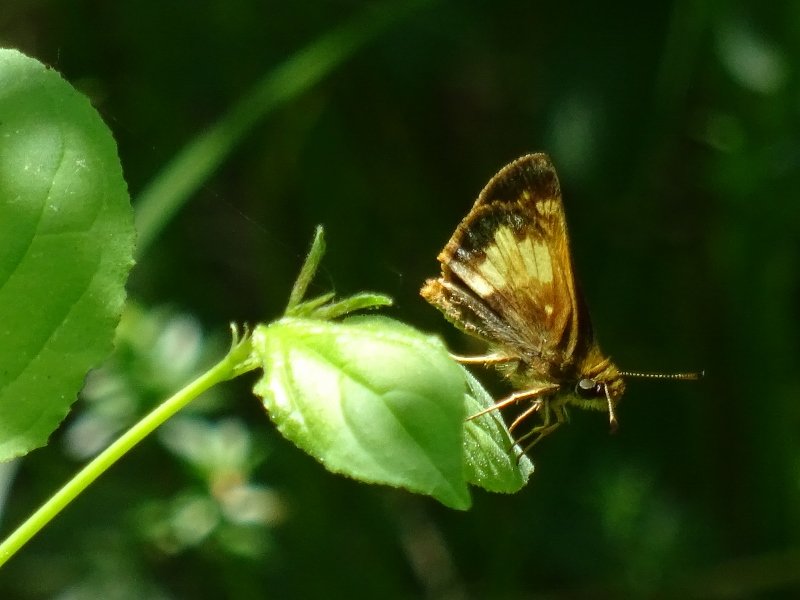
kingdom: Animalia
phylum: Arthropoda
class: Insecta
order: Lepidoptera
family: Hesperiidae
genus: Lon
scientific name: Lon hobomok
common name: Hobomok Skipper
